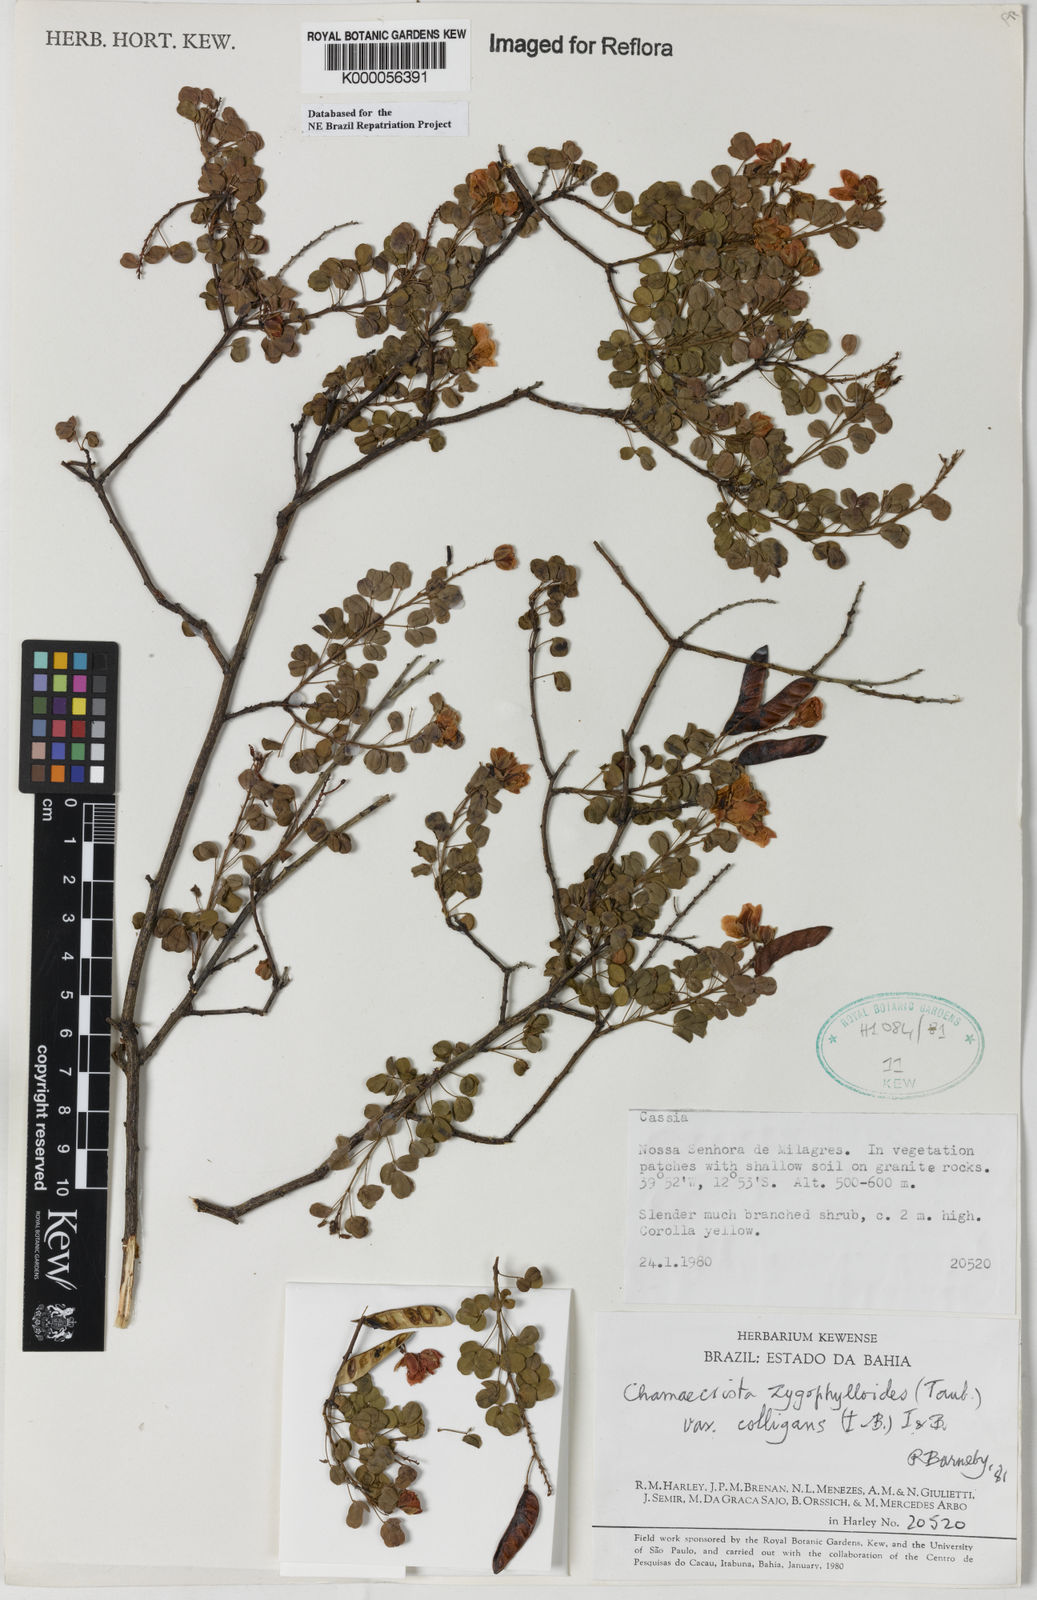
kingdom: Plantae
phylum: Tracheophyta
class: Magnoliopsida
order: Fabales
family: Fabaceae
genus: Chamaecrista
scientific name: Chamaecrista zygophylloides
